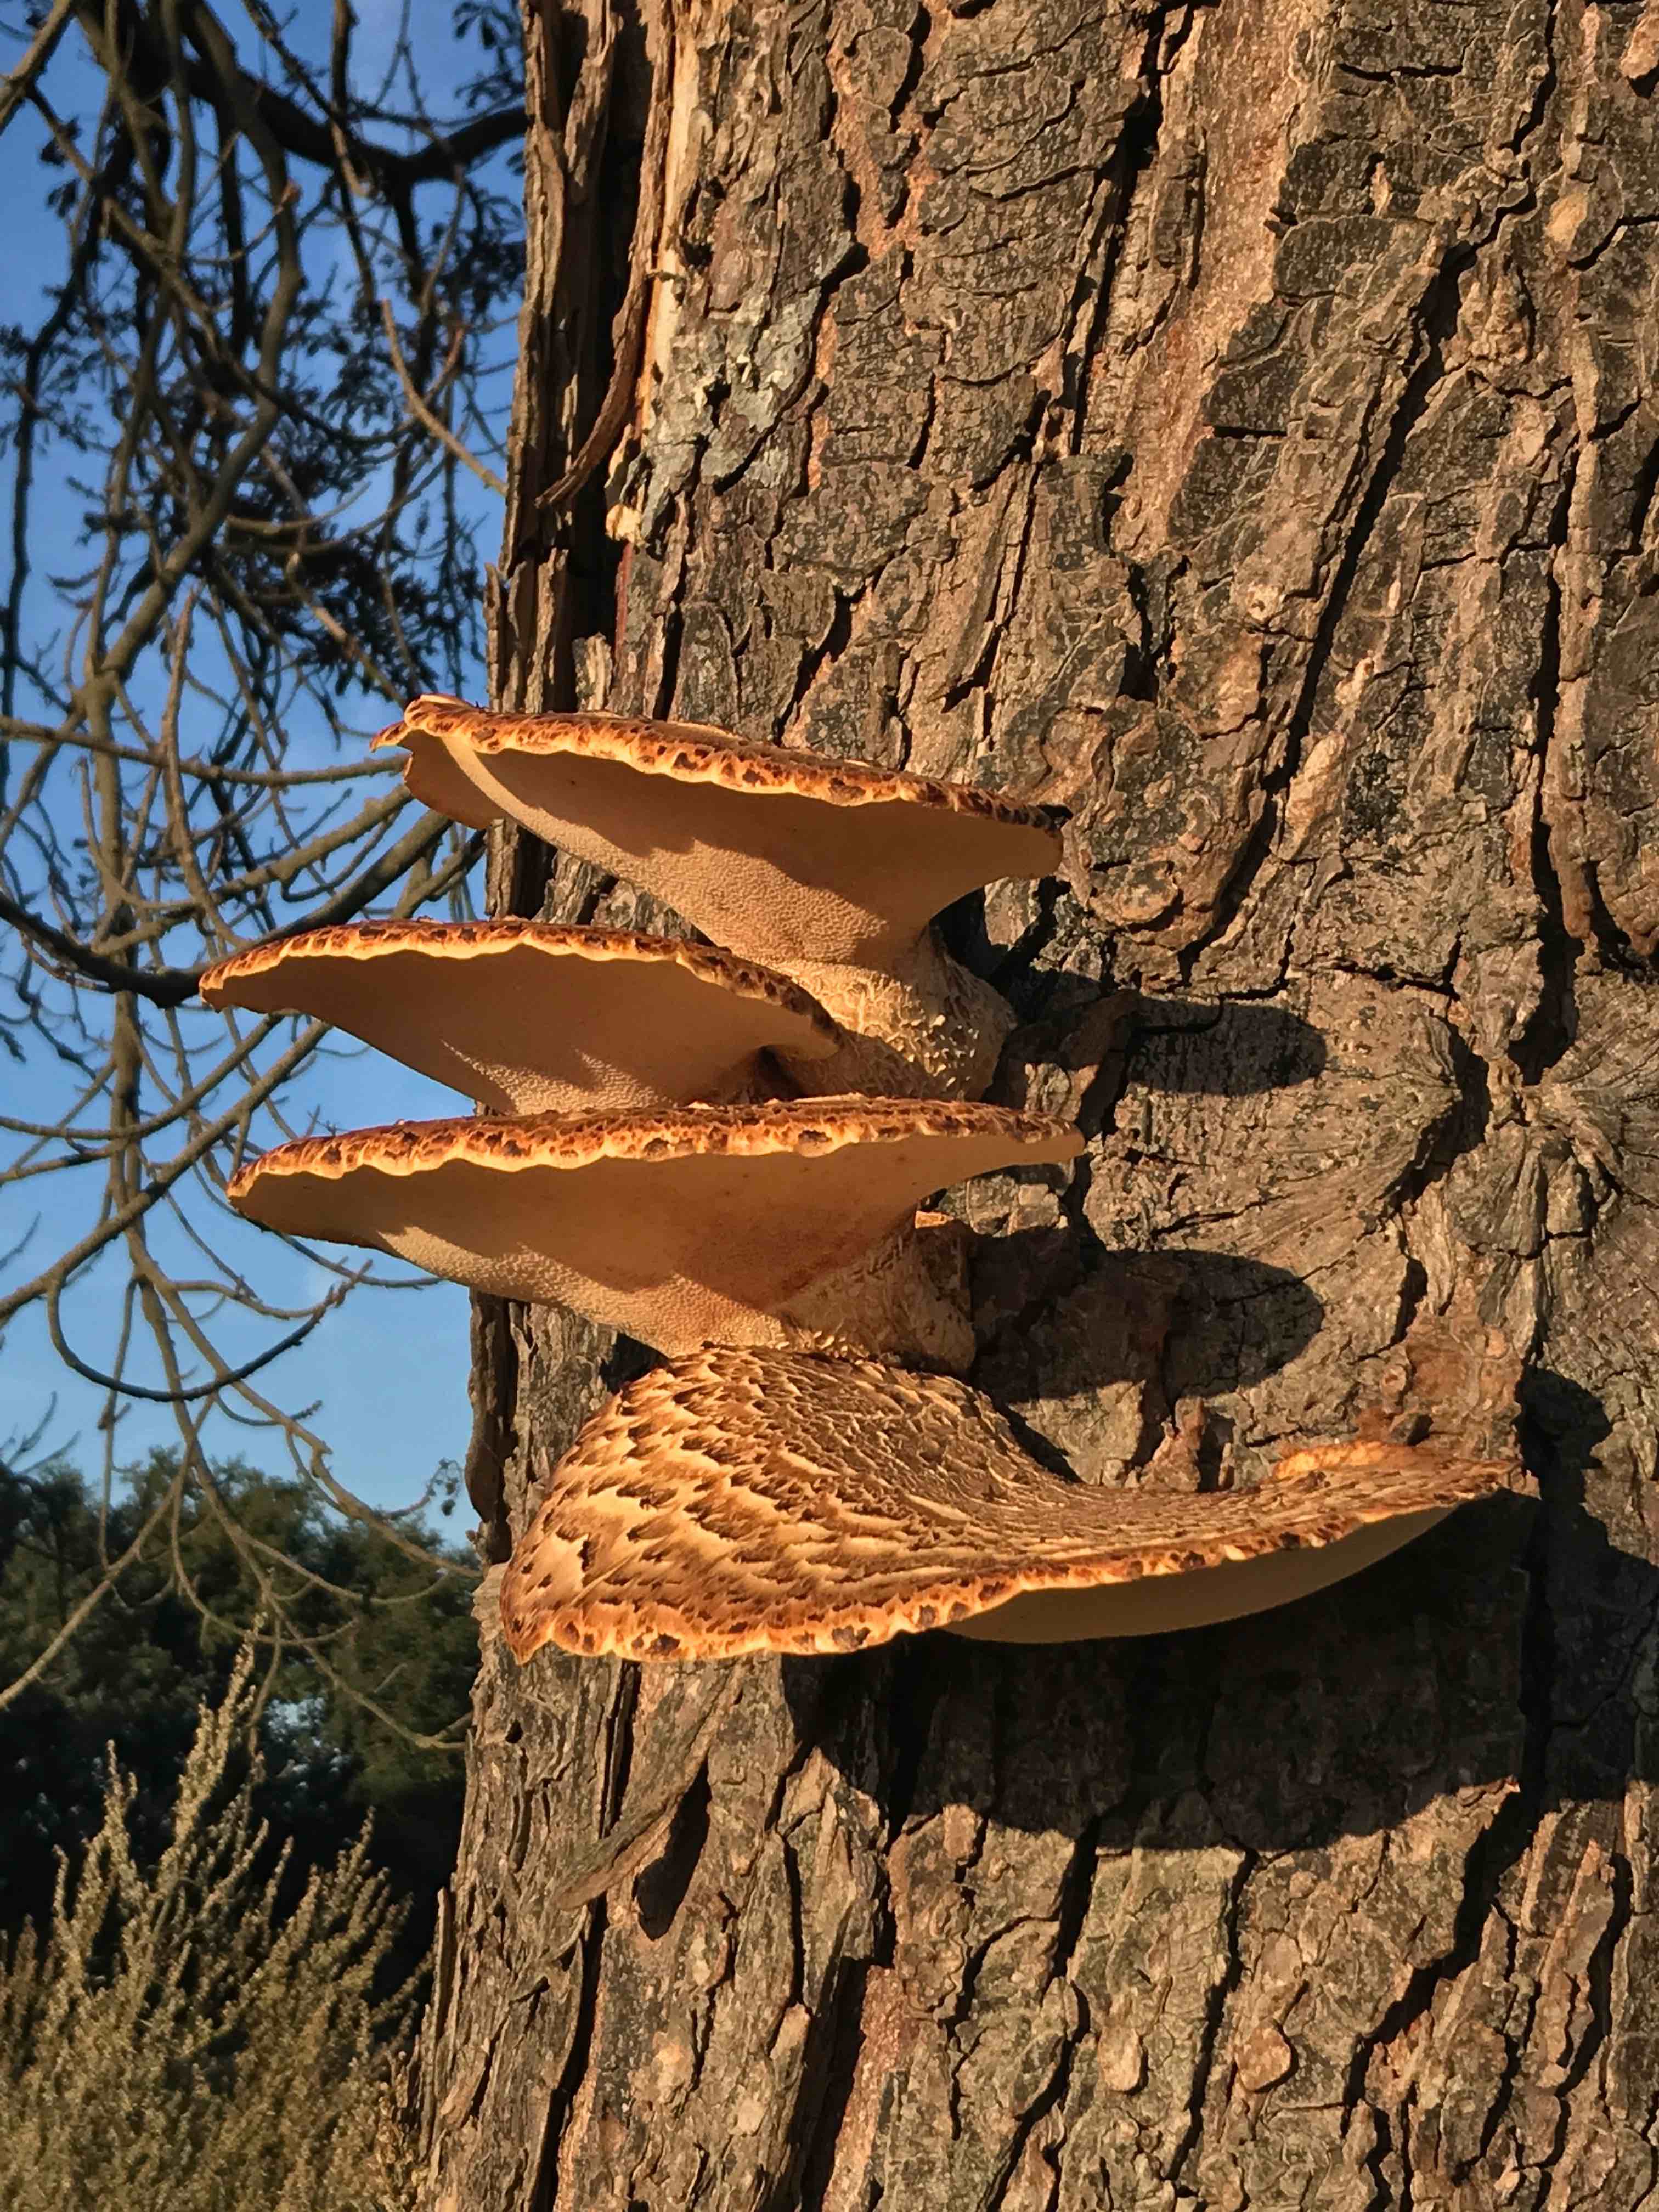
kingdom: Fungi
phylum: Basidiomycota
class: Agaricomycetes
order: Polyporales
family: Polyporaceae
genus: Cerioporus
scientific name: Cerioporus squamosus
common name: skællet stilkporesvamp
